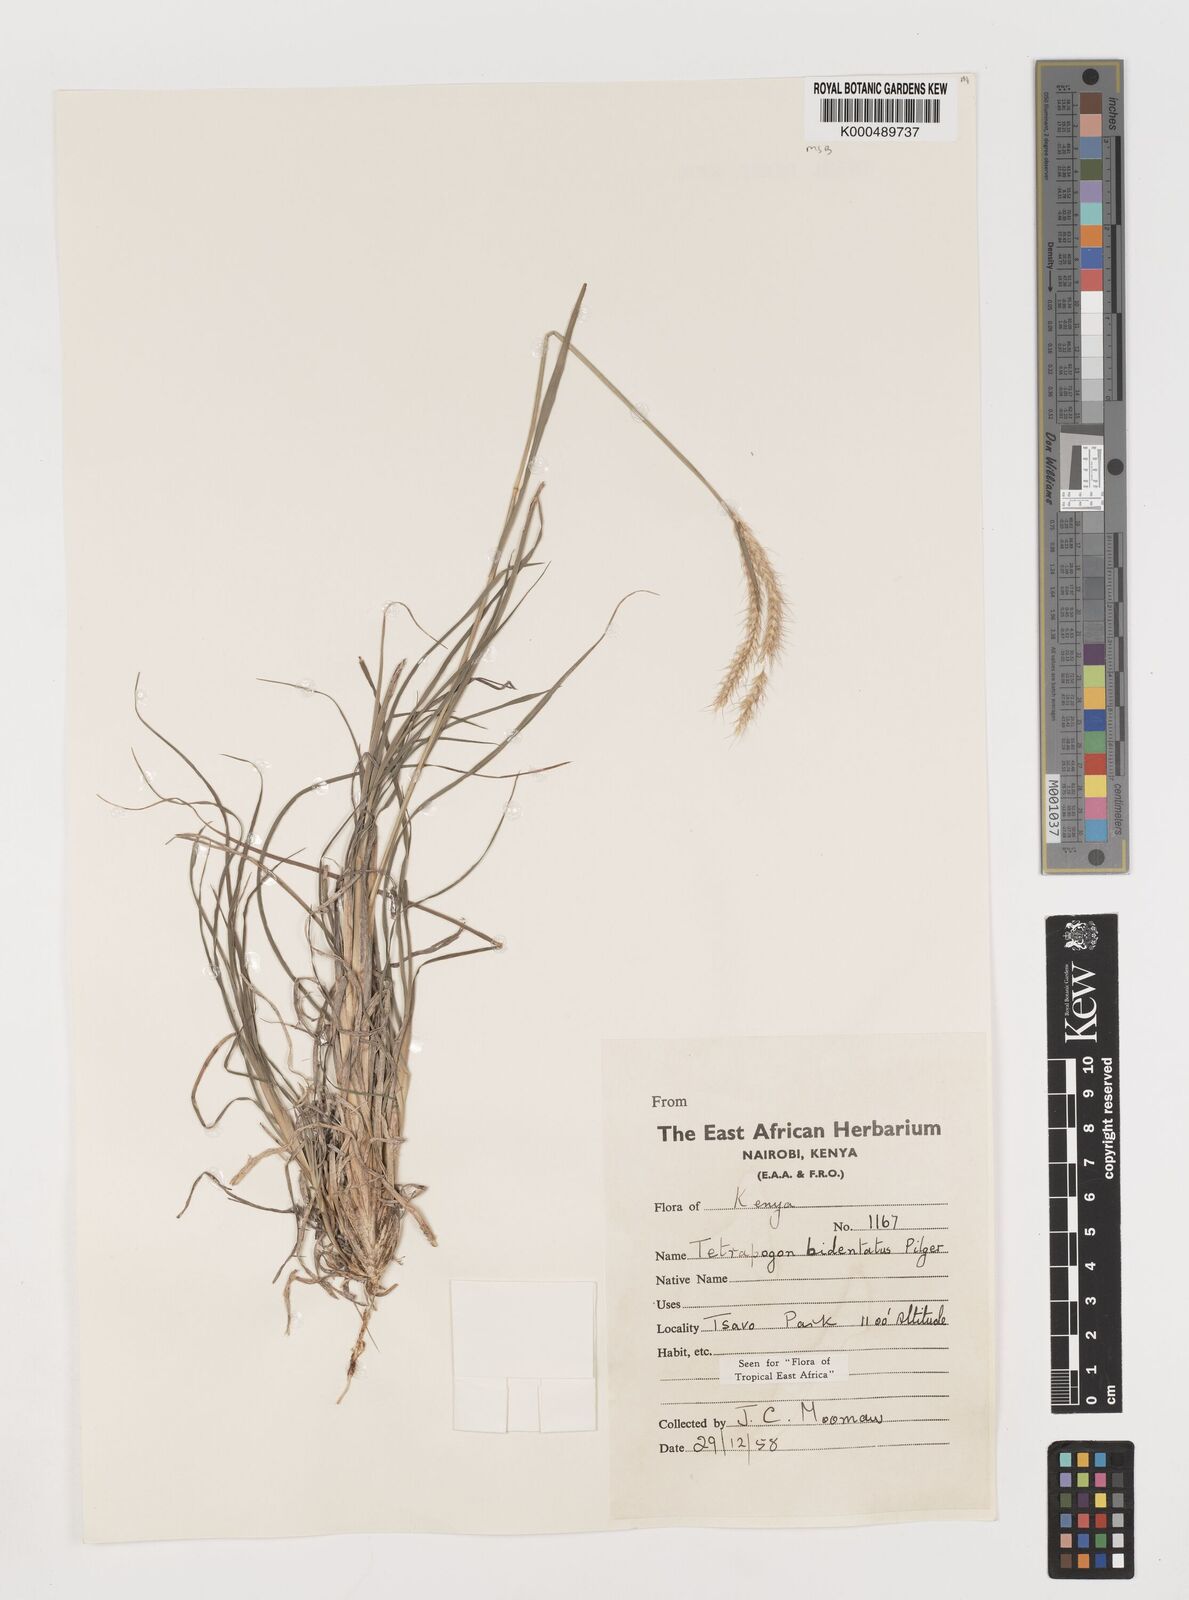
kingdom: Plantae
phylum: Tracheophyta
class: Liliopsida
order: Poales
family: Poaceae
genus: Tetrapogon
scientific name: Tetrapogon bidentatus
